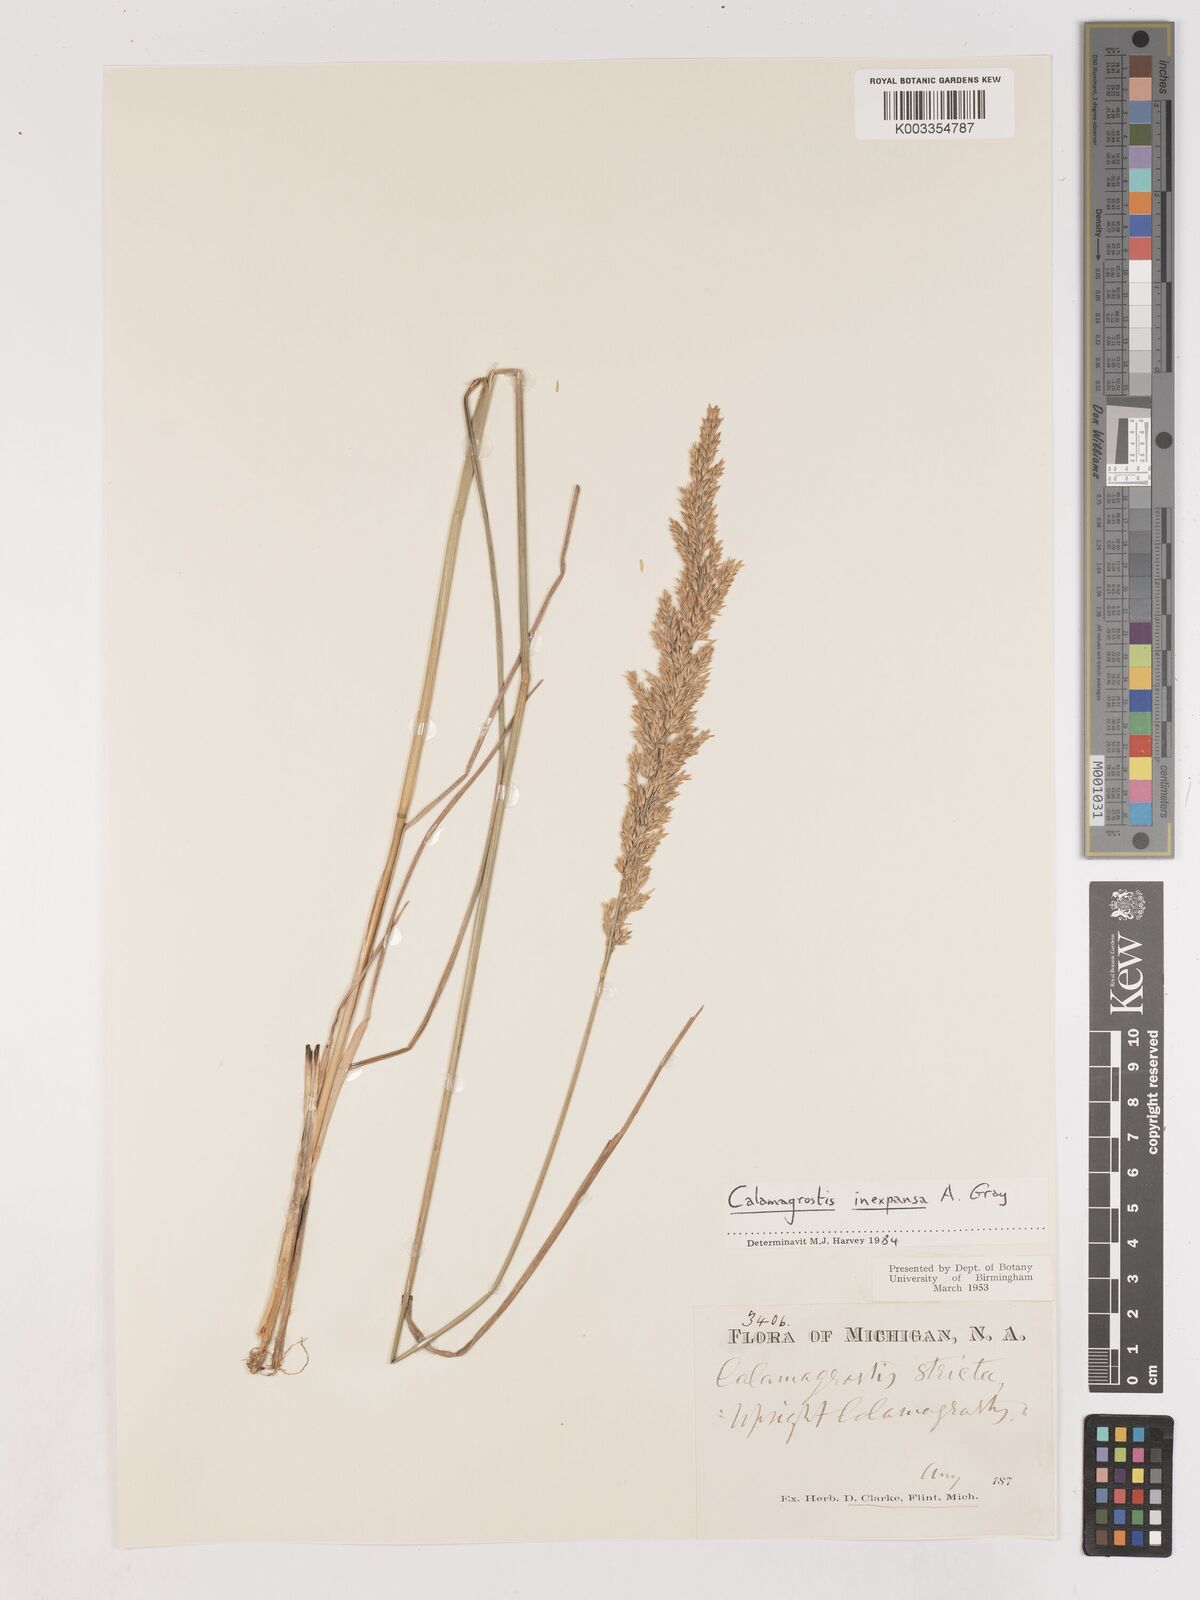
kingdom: Plantae
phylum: Tracheophyta
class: Liliopsida
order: Poales
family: Poaceae
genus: Cinnagrostis
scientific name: Cinnagrostis recta
